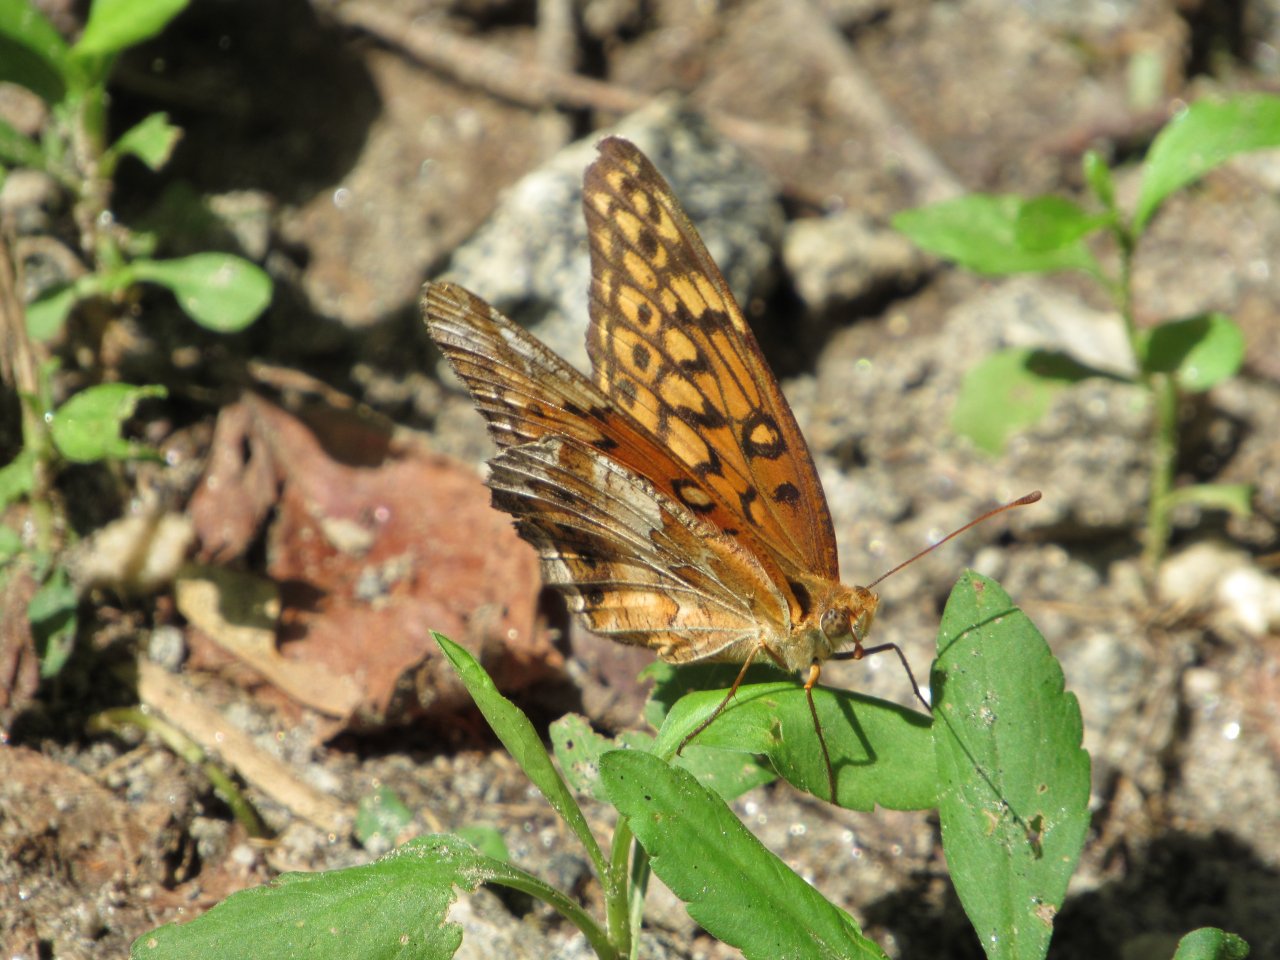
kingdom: Animalia
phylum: Arthropoda
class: Insecta
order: Lepidoptera
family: Nymphalidae
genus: Euptoieta
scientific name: Euptoieta claudia
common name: Variegated Fritillary
